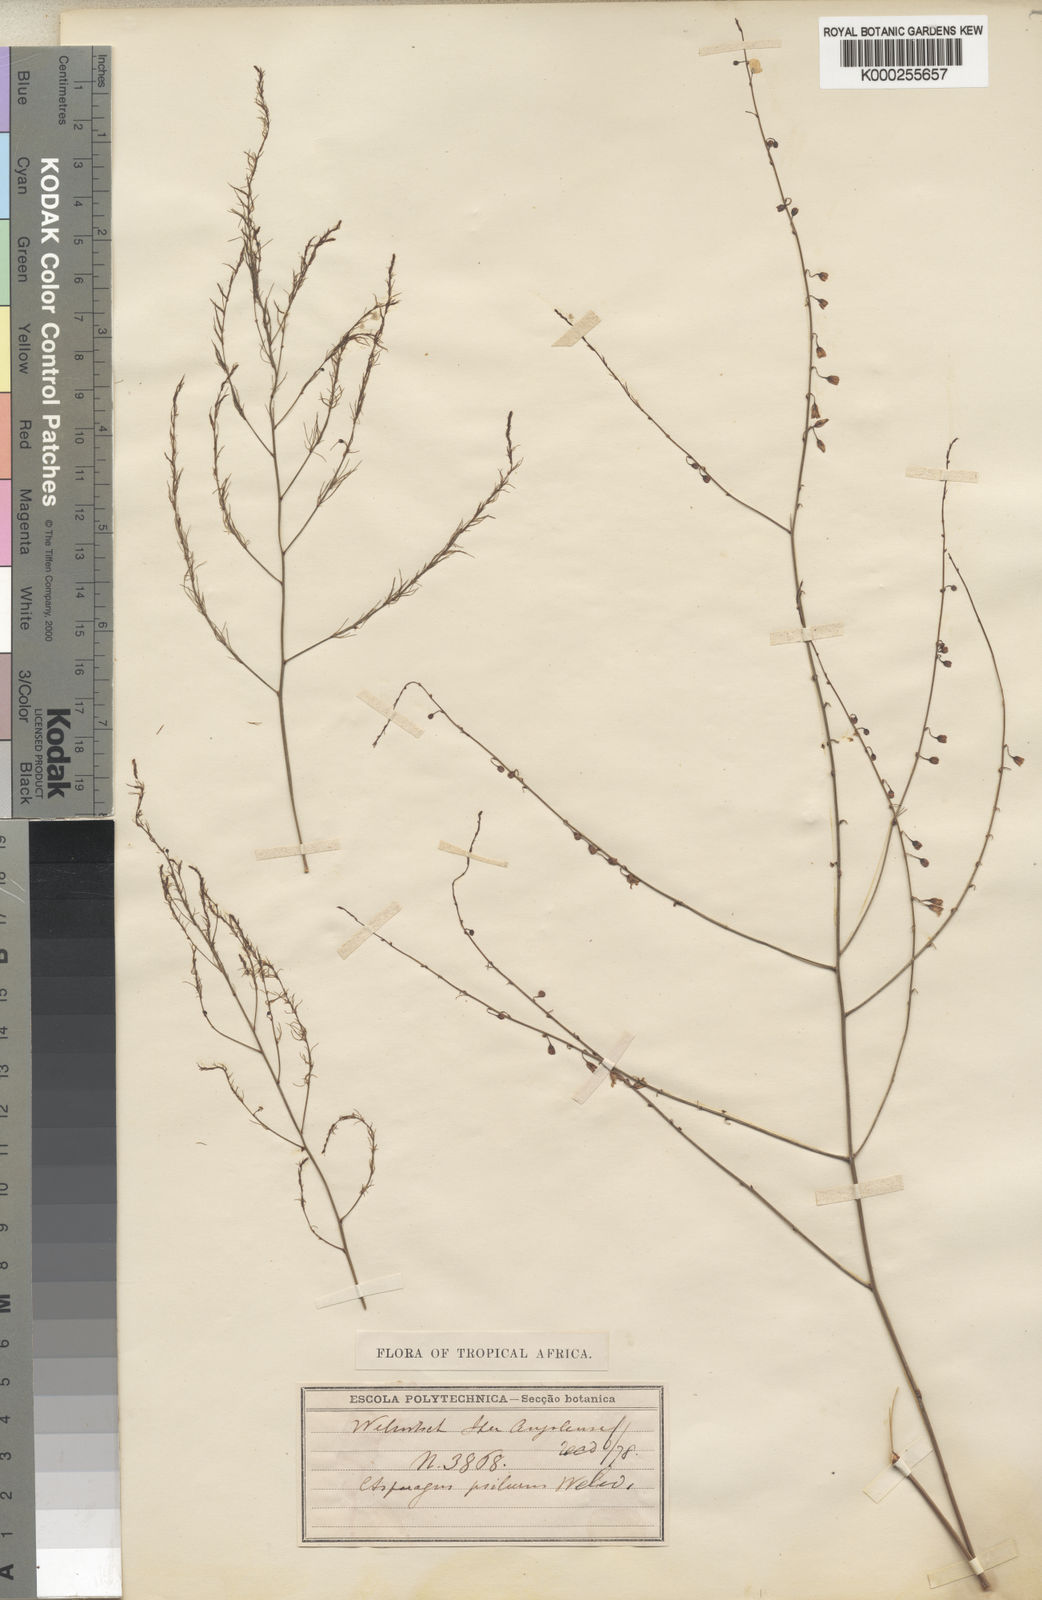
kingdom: Plantae
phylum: Tracheophyta
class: Liliopsida
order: Asparagales
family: Asparagaceae
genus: Asparagus
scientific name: Asparagus psilurus
